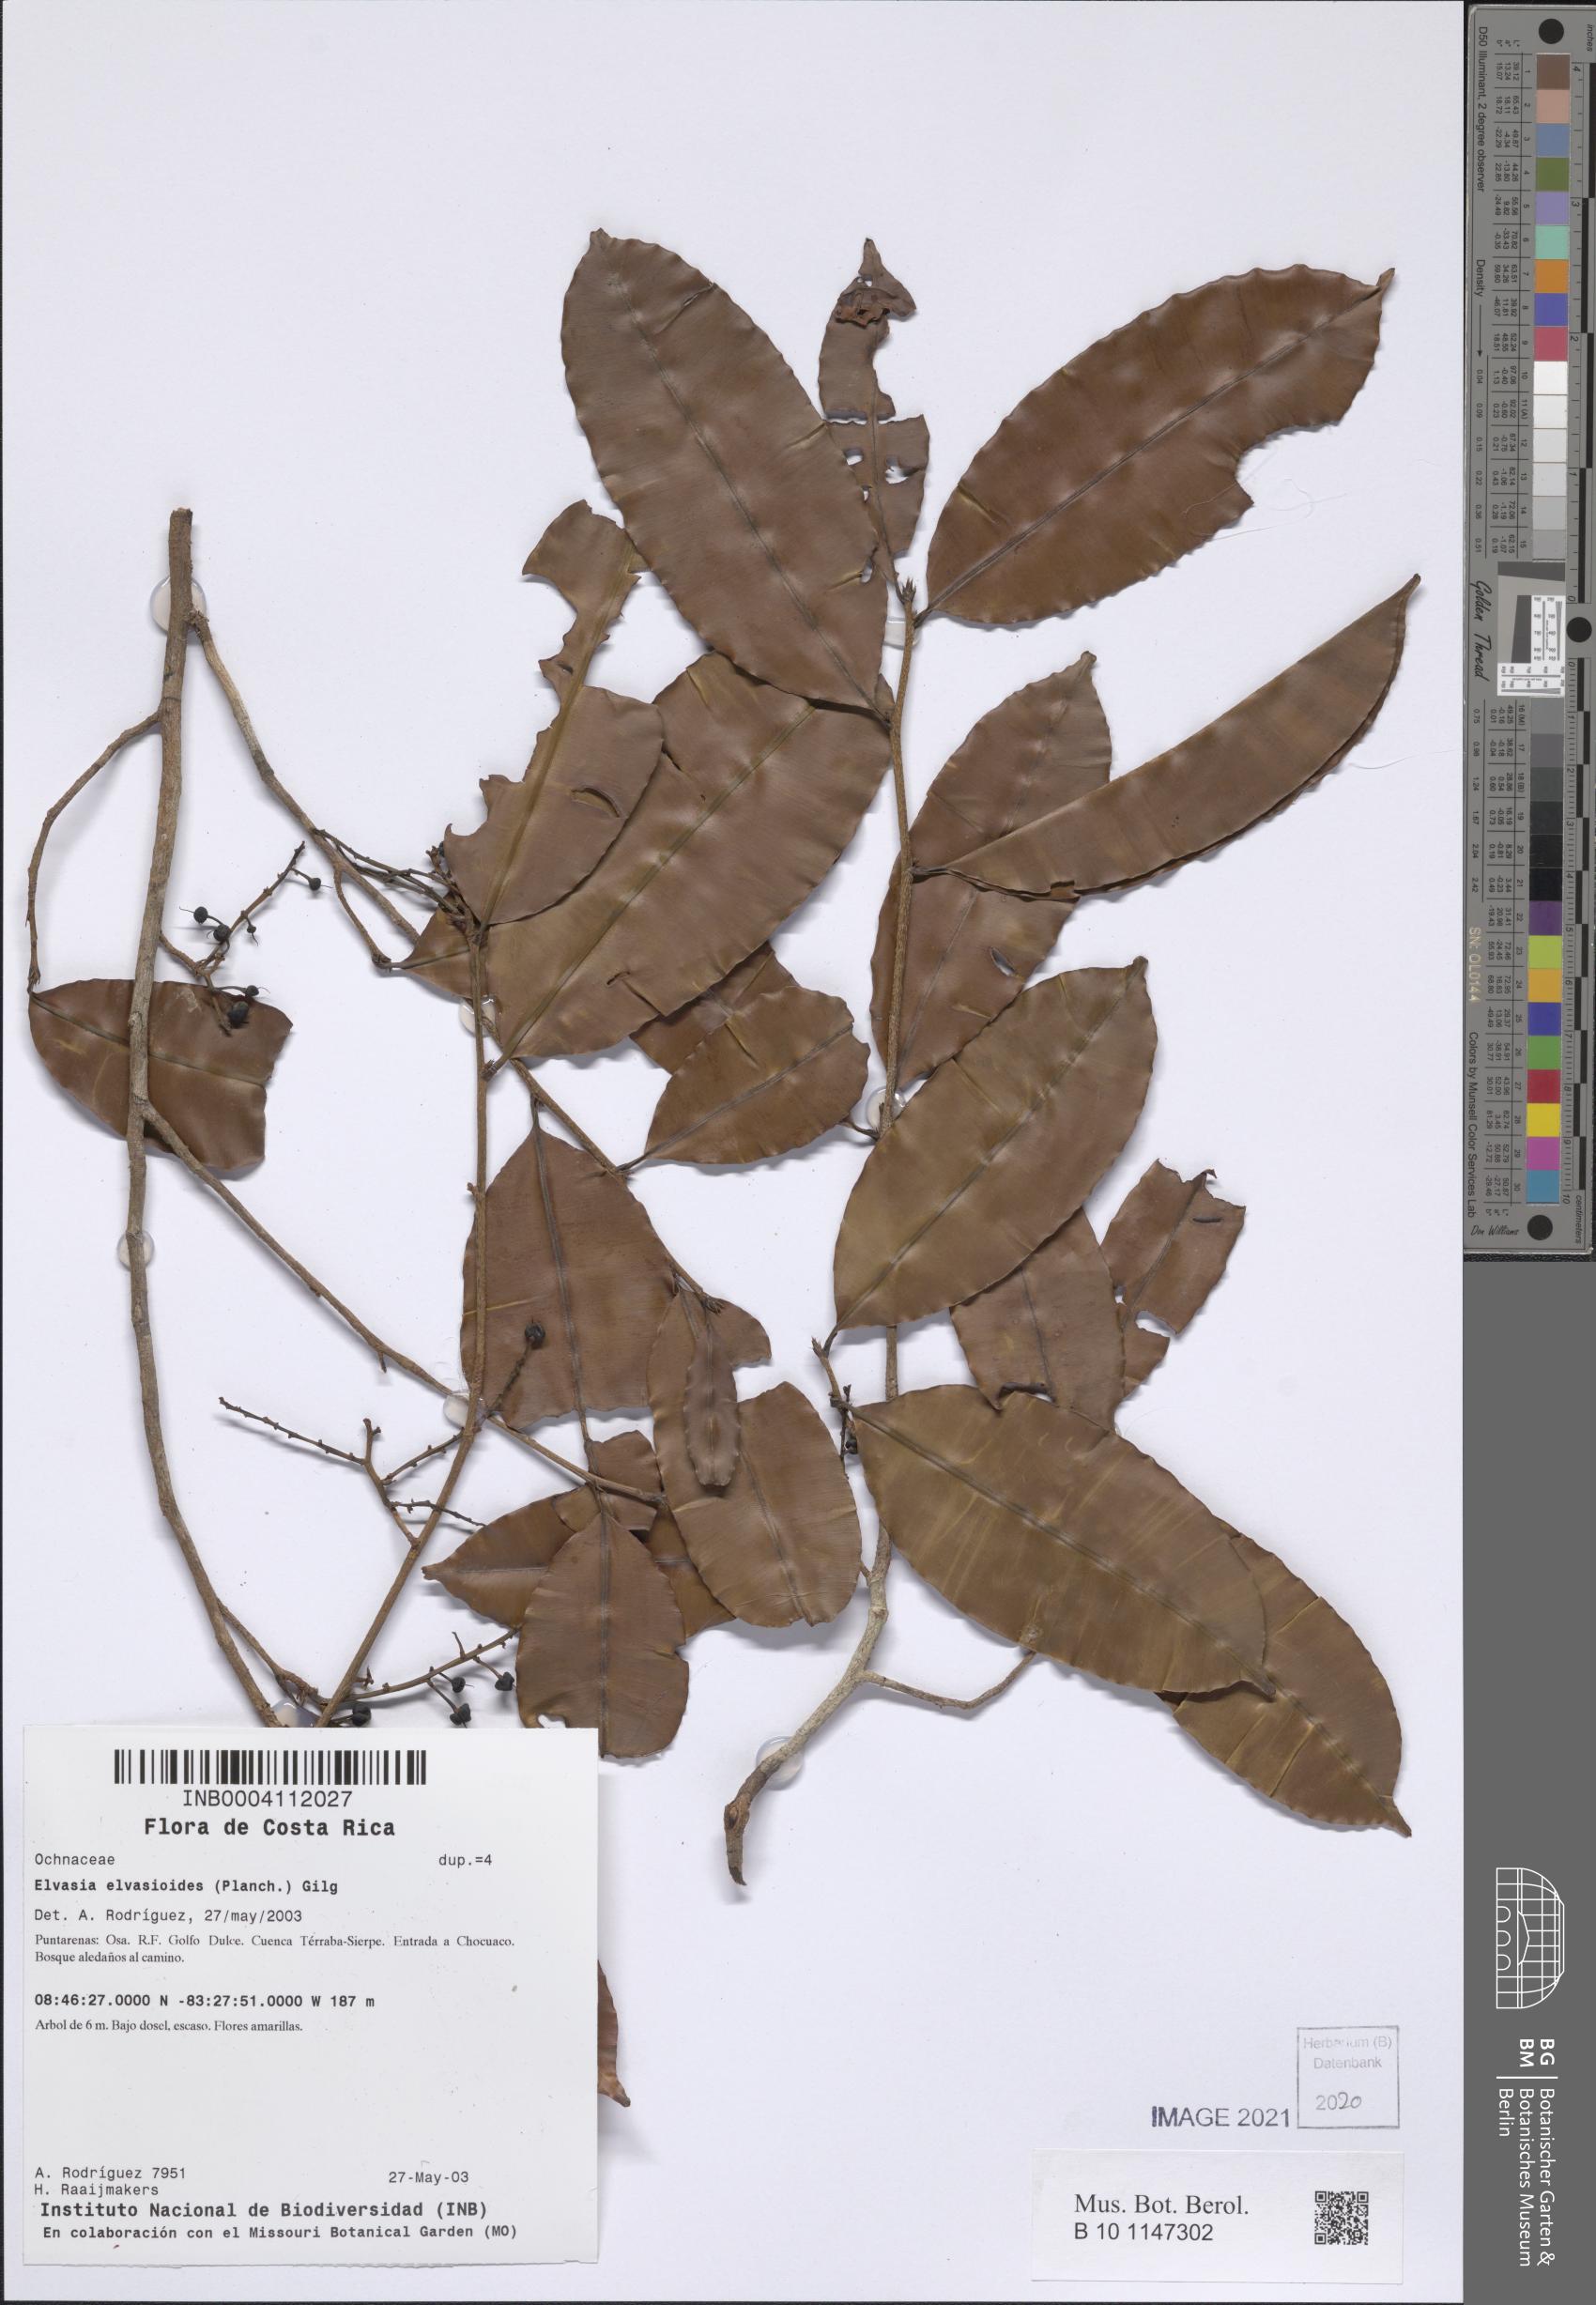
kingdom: Plantae
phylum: Tracheophyta
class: Magnoliopsida
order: Malpighiales
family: Ochnaceae
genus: Elvasia
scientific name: Elvasia elvasioides
